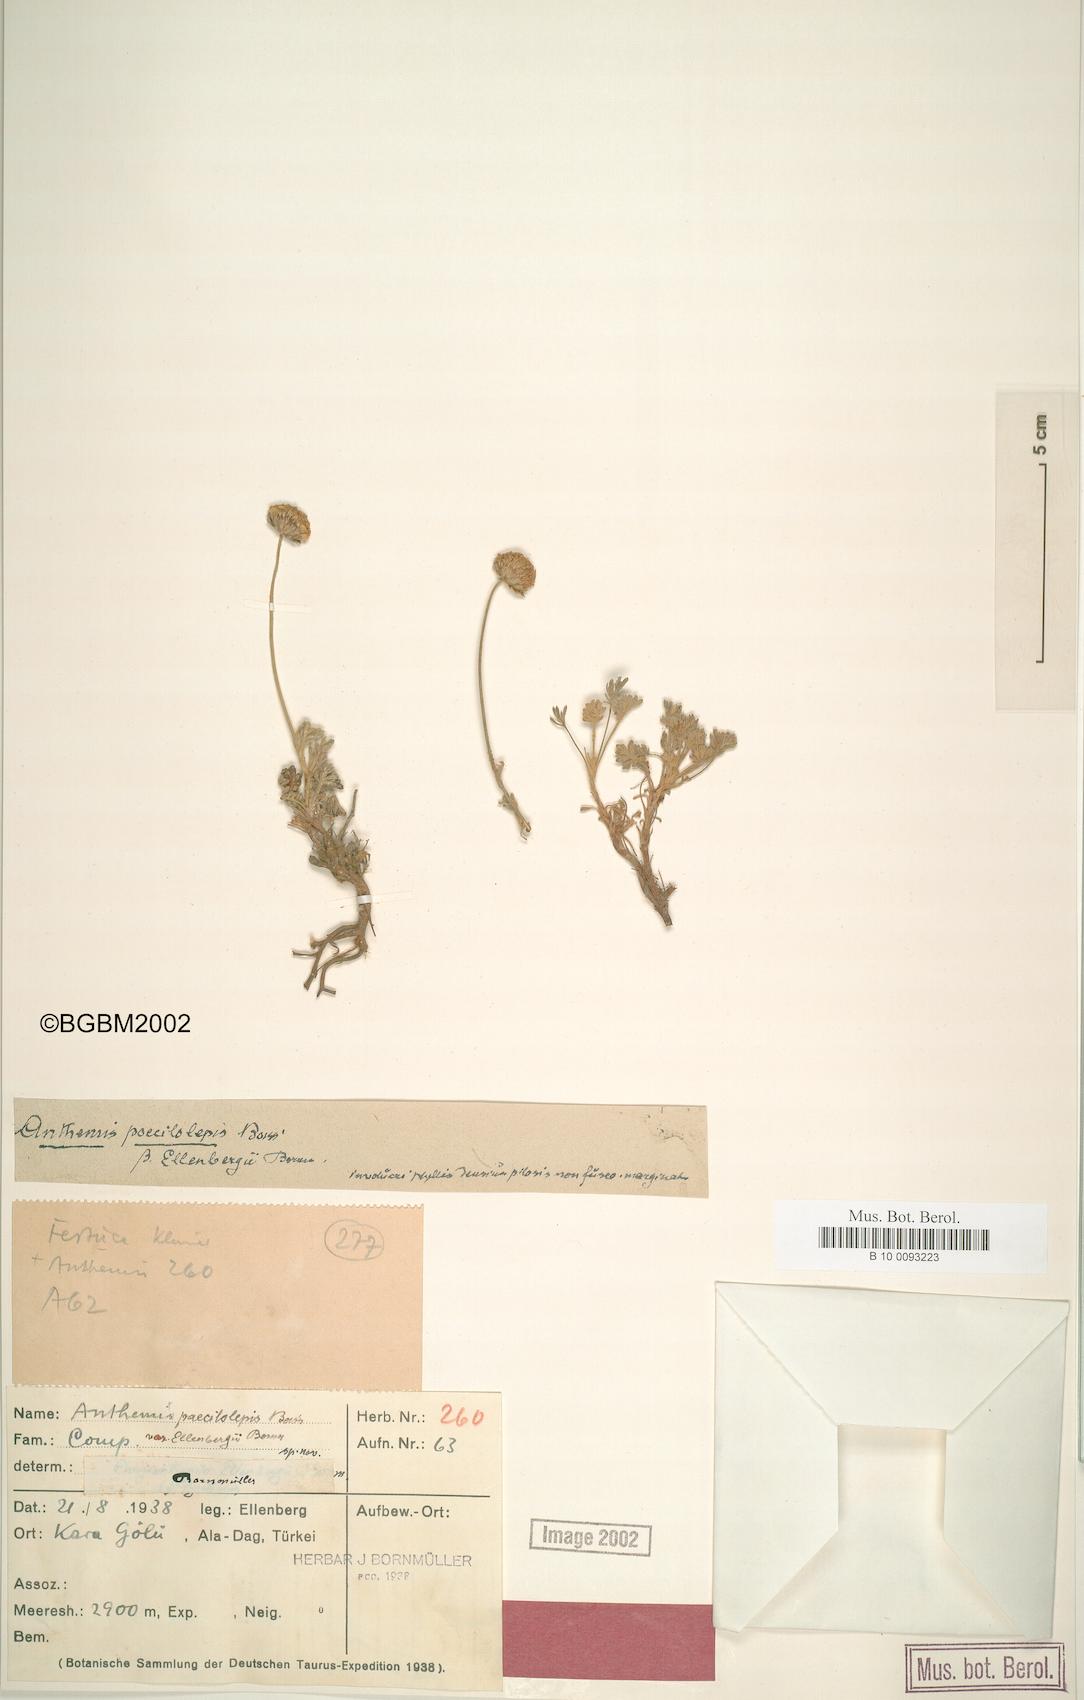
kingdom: Plantae
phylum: Tracheophyta
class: Magnoliopsida
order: Asterales
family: Asteraceae
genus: Anthemis
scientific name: Anthemis kotschyana
